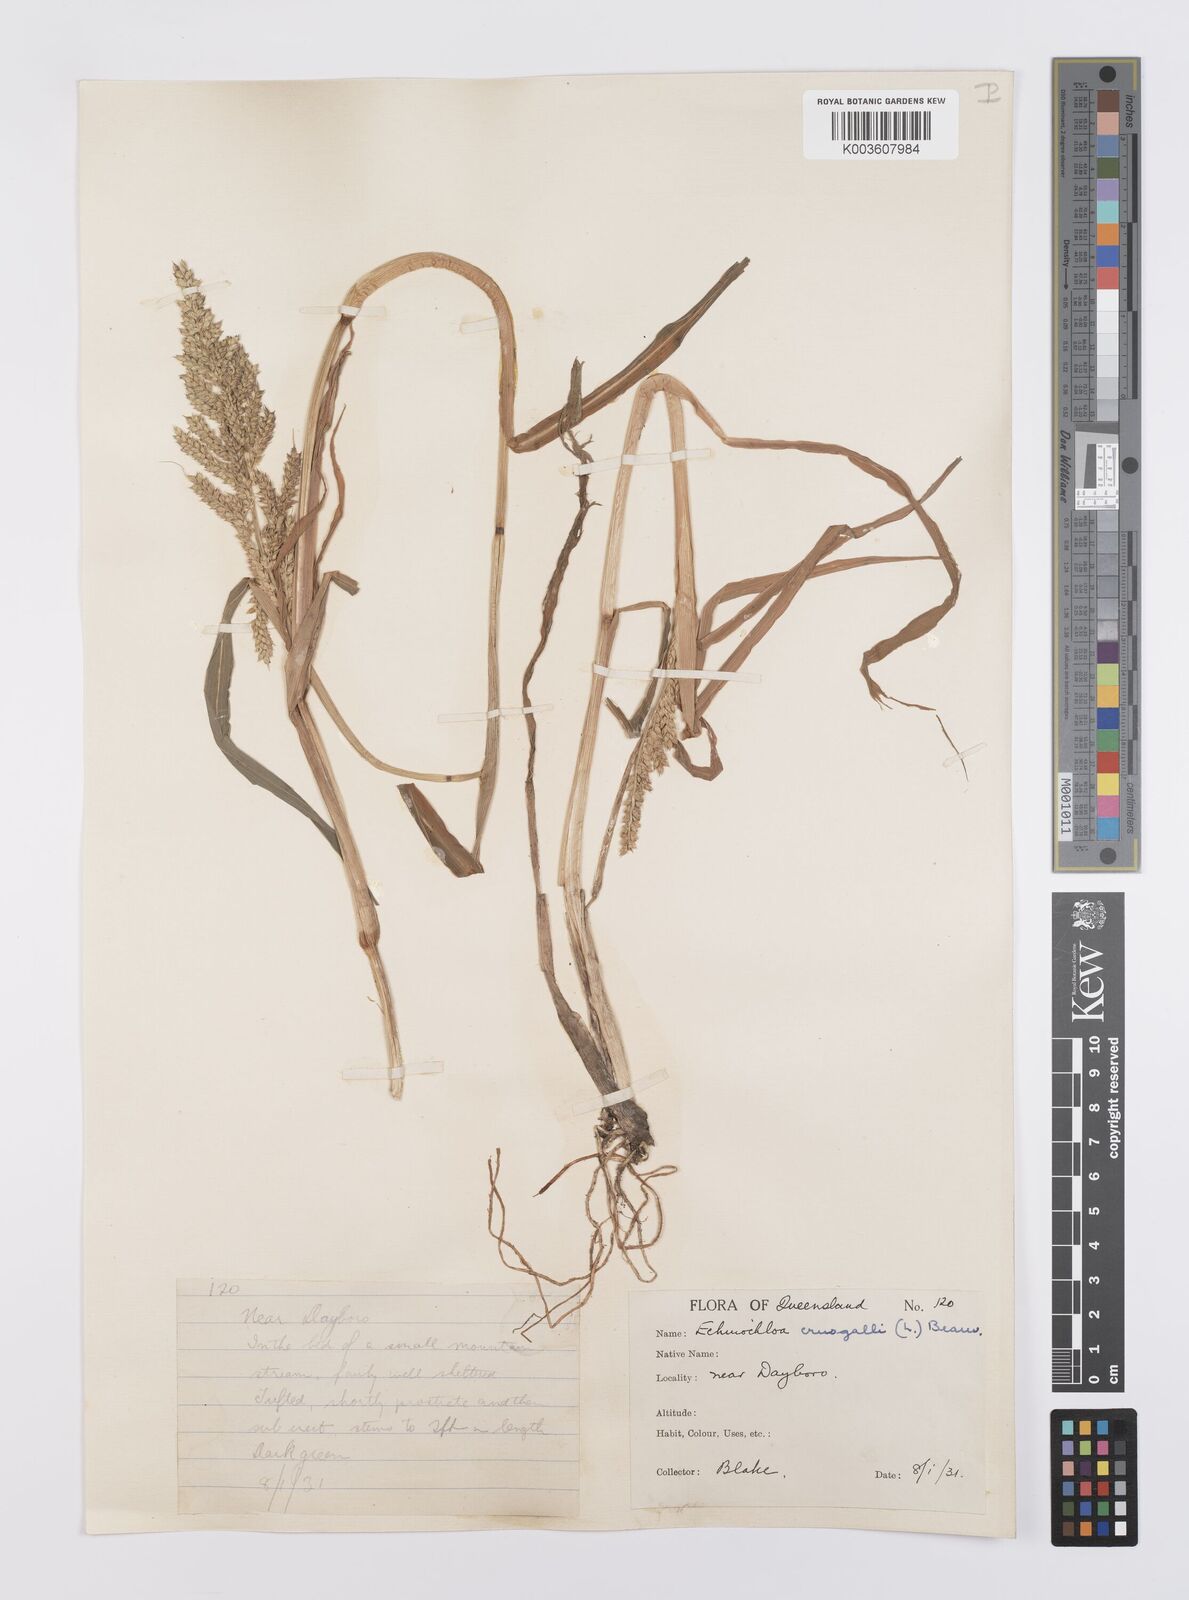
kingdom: Plantae
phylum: Tracheophyta
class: Liliopsida
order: Poales
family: Poaceae
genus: Echinochloa
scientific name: Echinochloa crus-galli
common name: Cockspur
